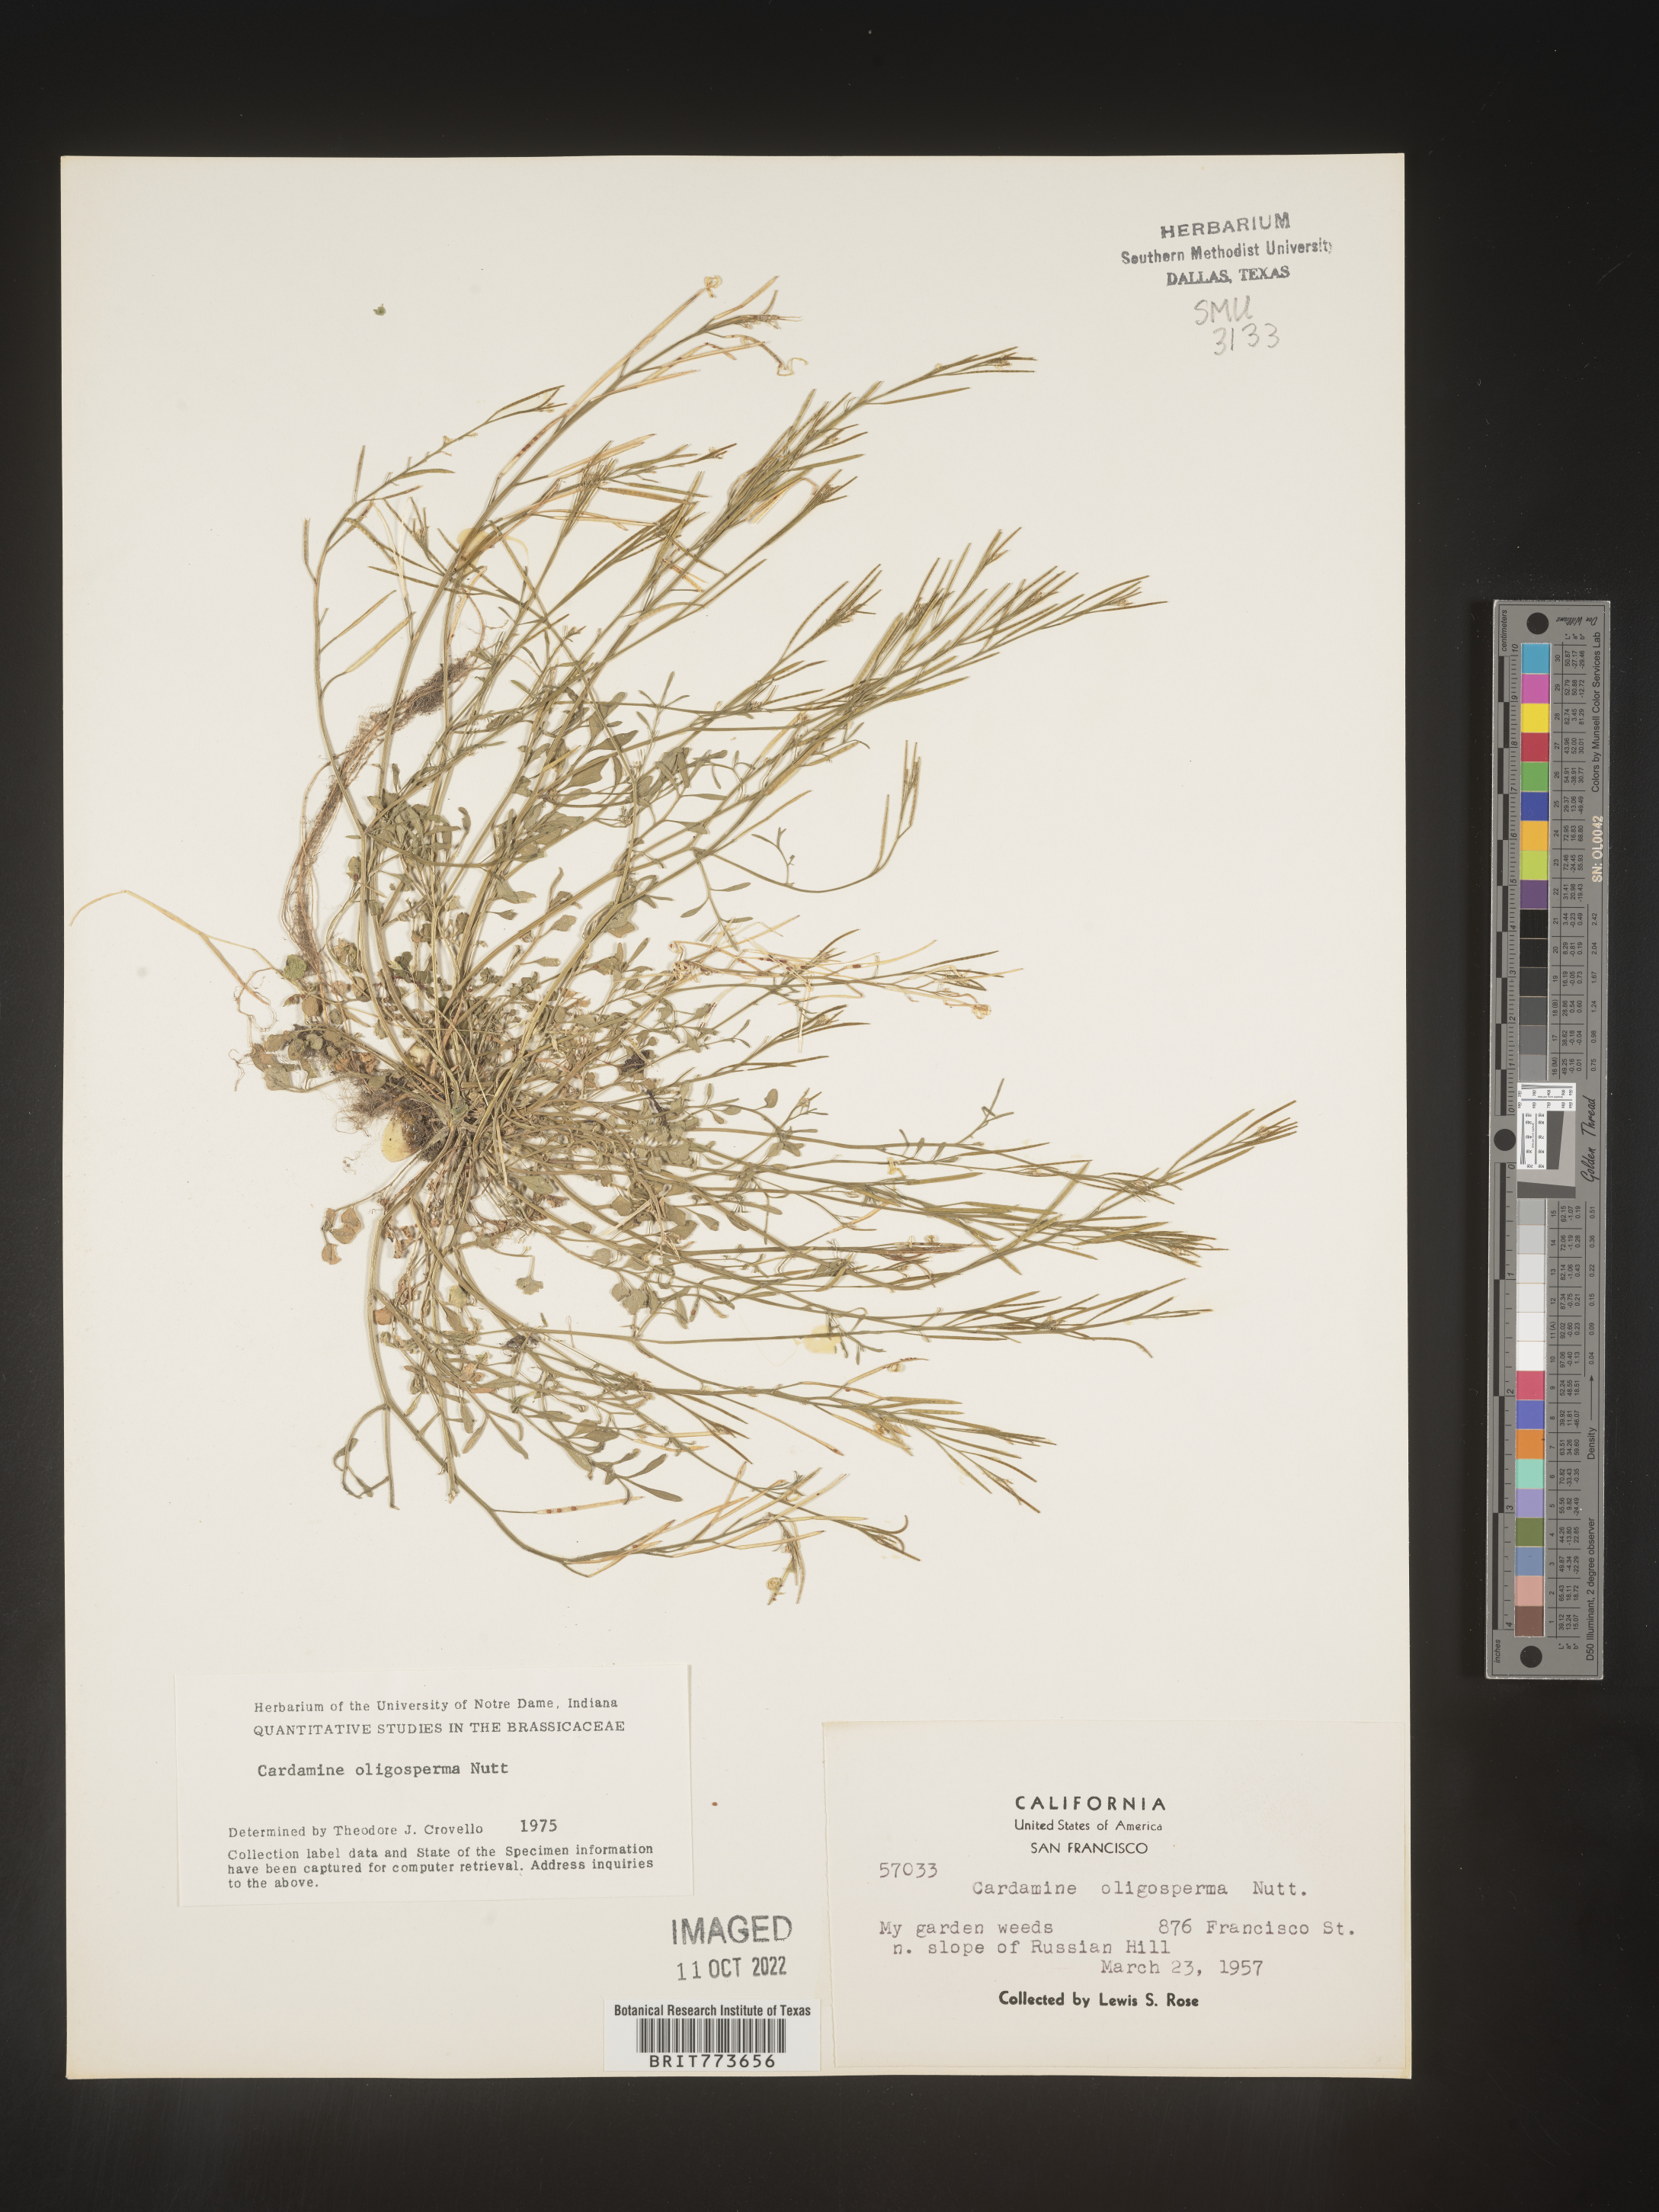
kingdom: Plantae
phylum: Tracheophyta
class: Magnoliopsida
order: Brassicales
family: Brassicaceae
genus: Cardamine
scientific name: Cardamine
